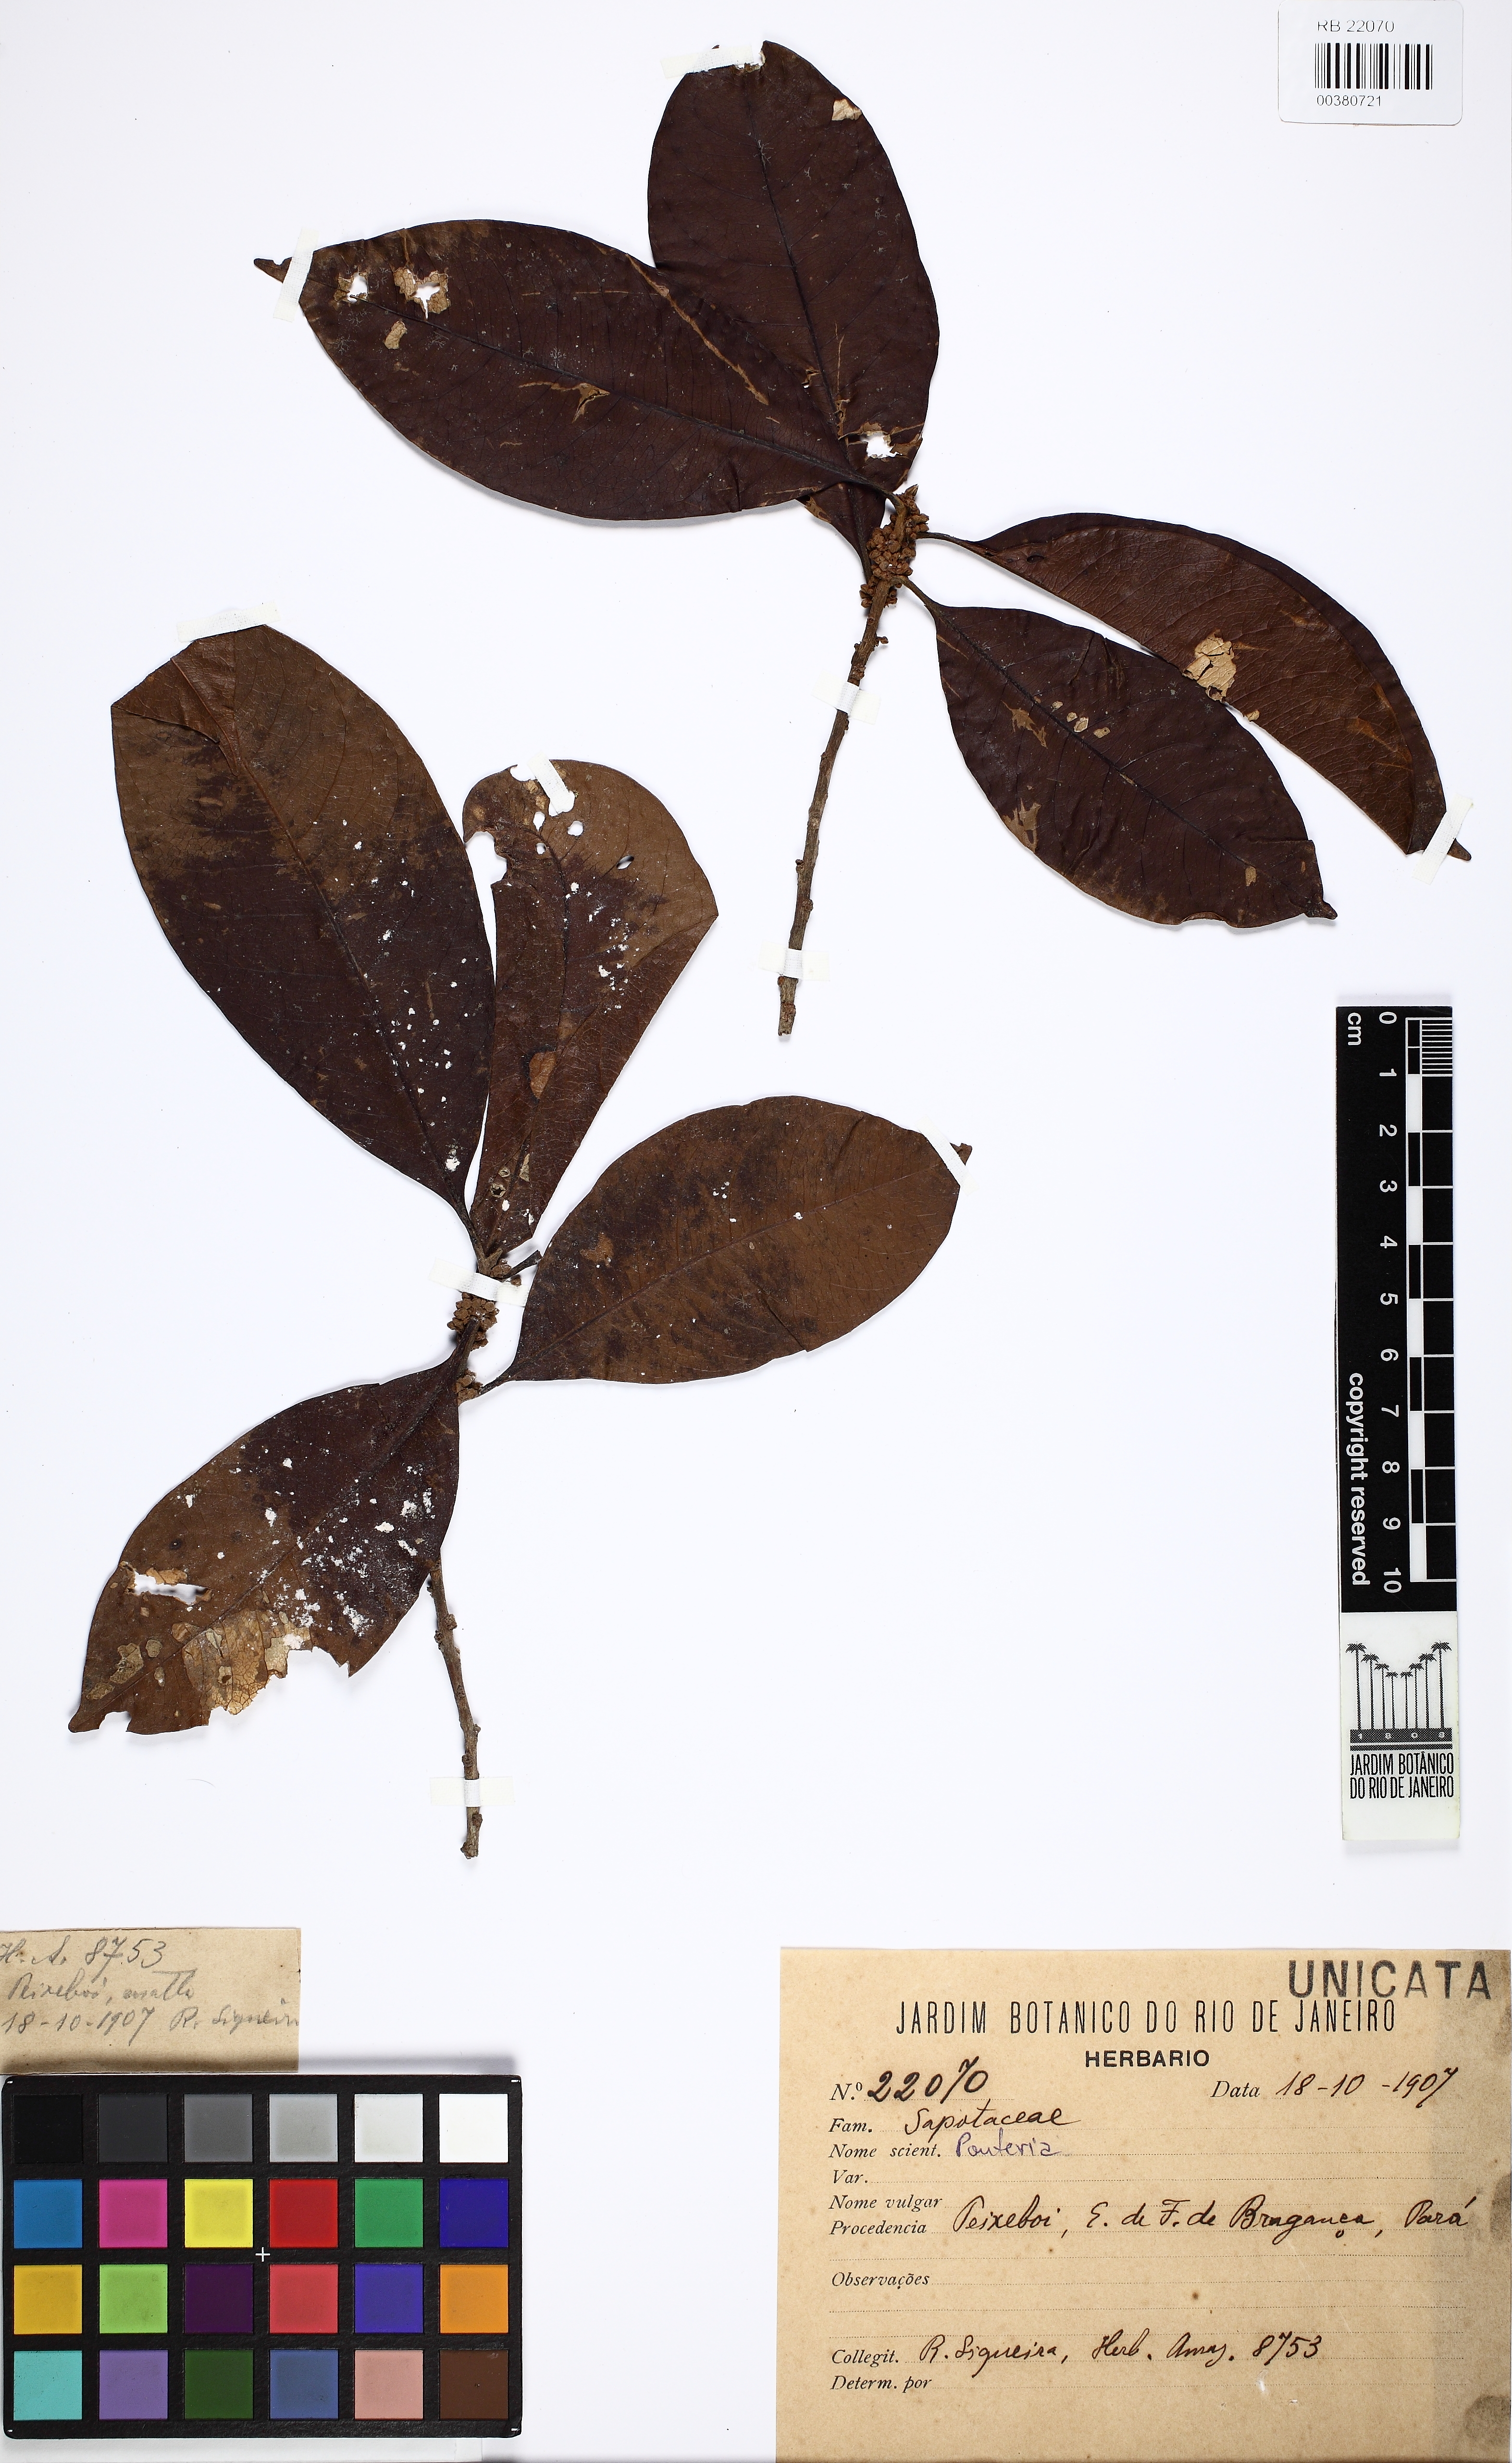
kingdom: Plantae
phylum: Tracheophyta
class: Magnoliopsida
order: Ericales
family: Sapotaceae
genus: Pouteria
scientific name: Pouteria
